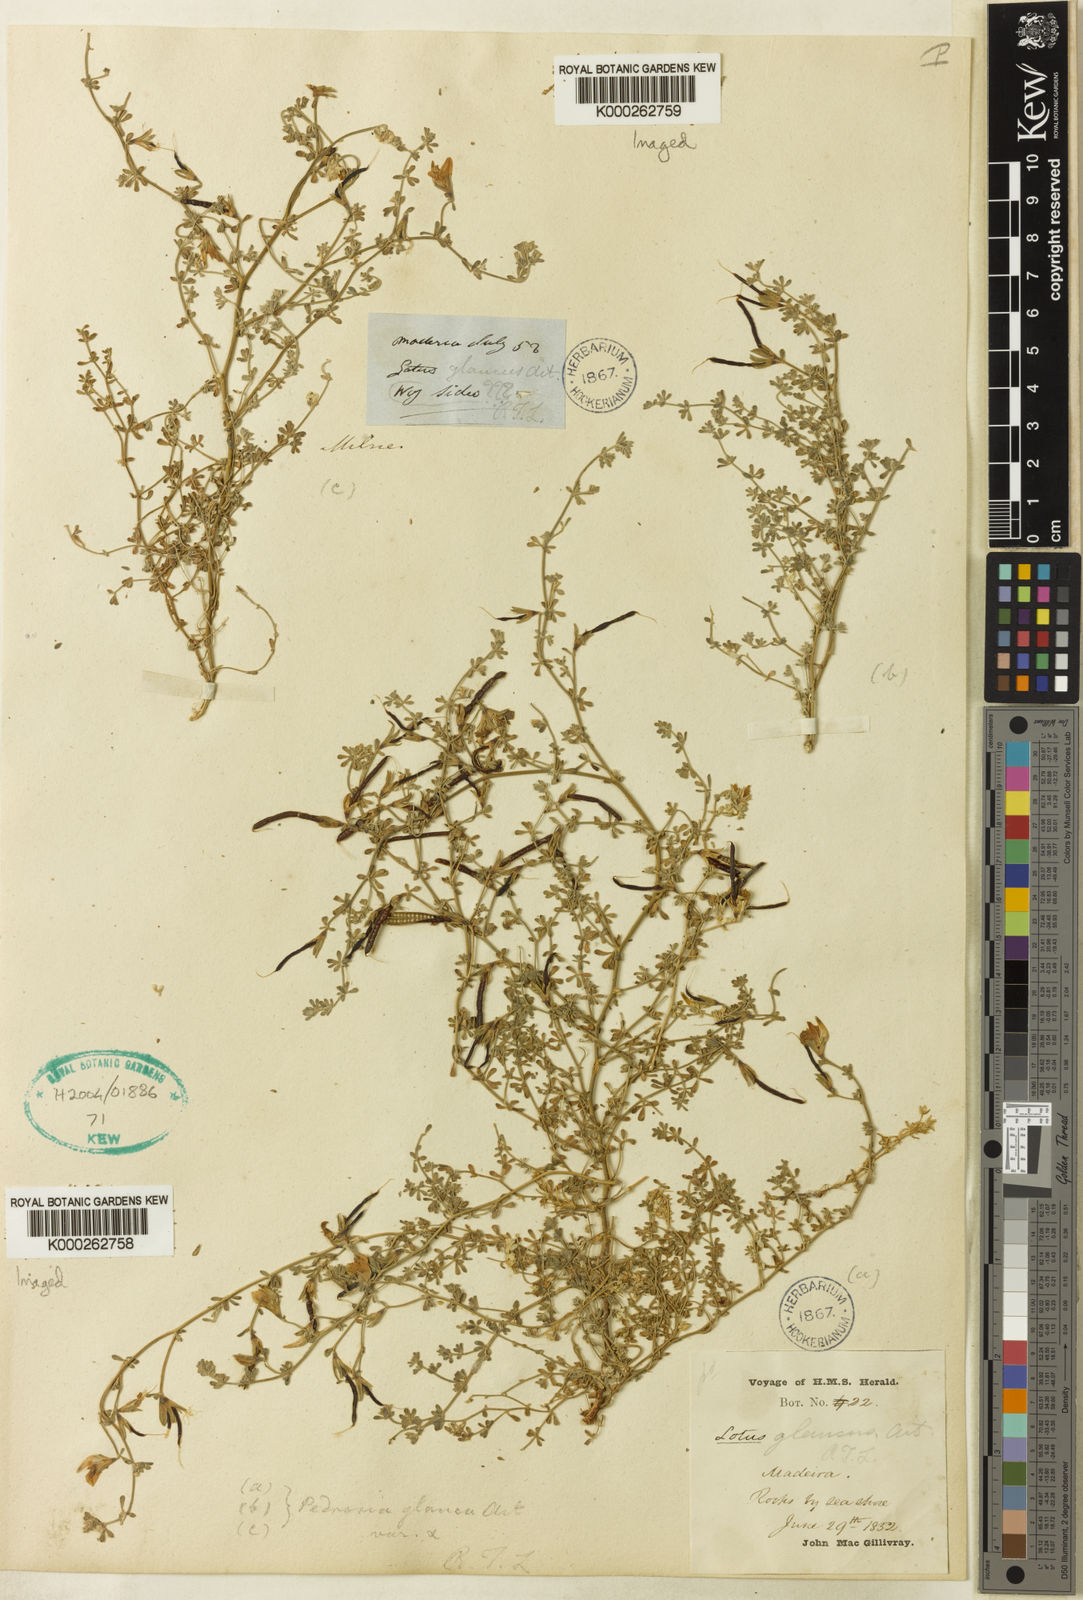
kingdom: Plantae
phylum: Tracheophyta
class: Magnoliopsida
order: Fabales
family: Fabaceae
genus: Lotus
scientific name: Lotus glaucus
